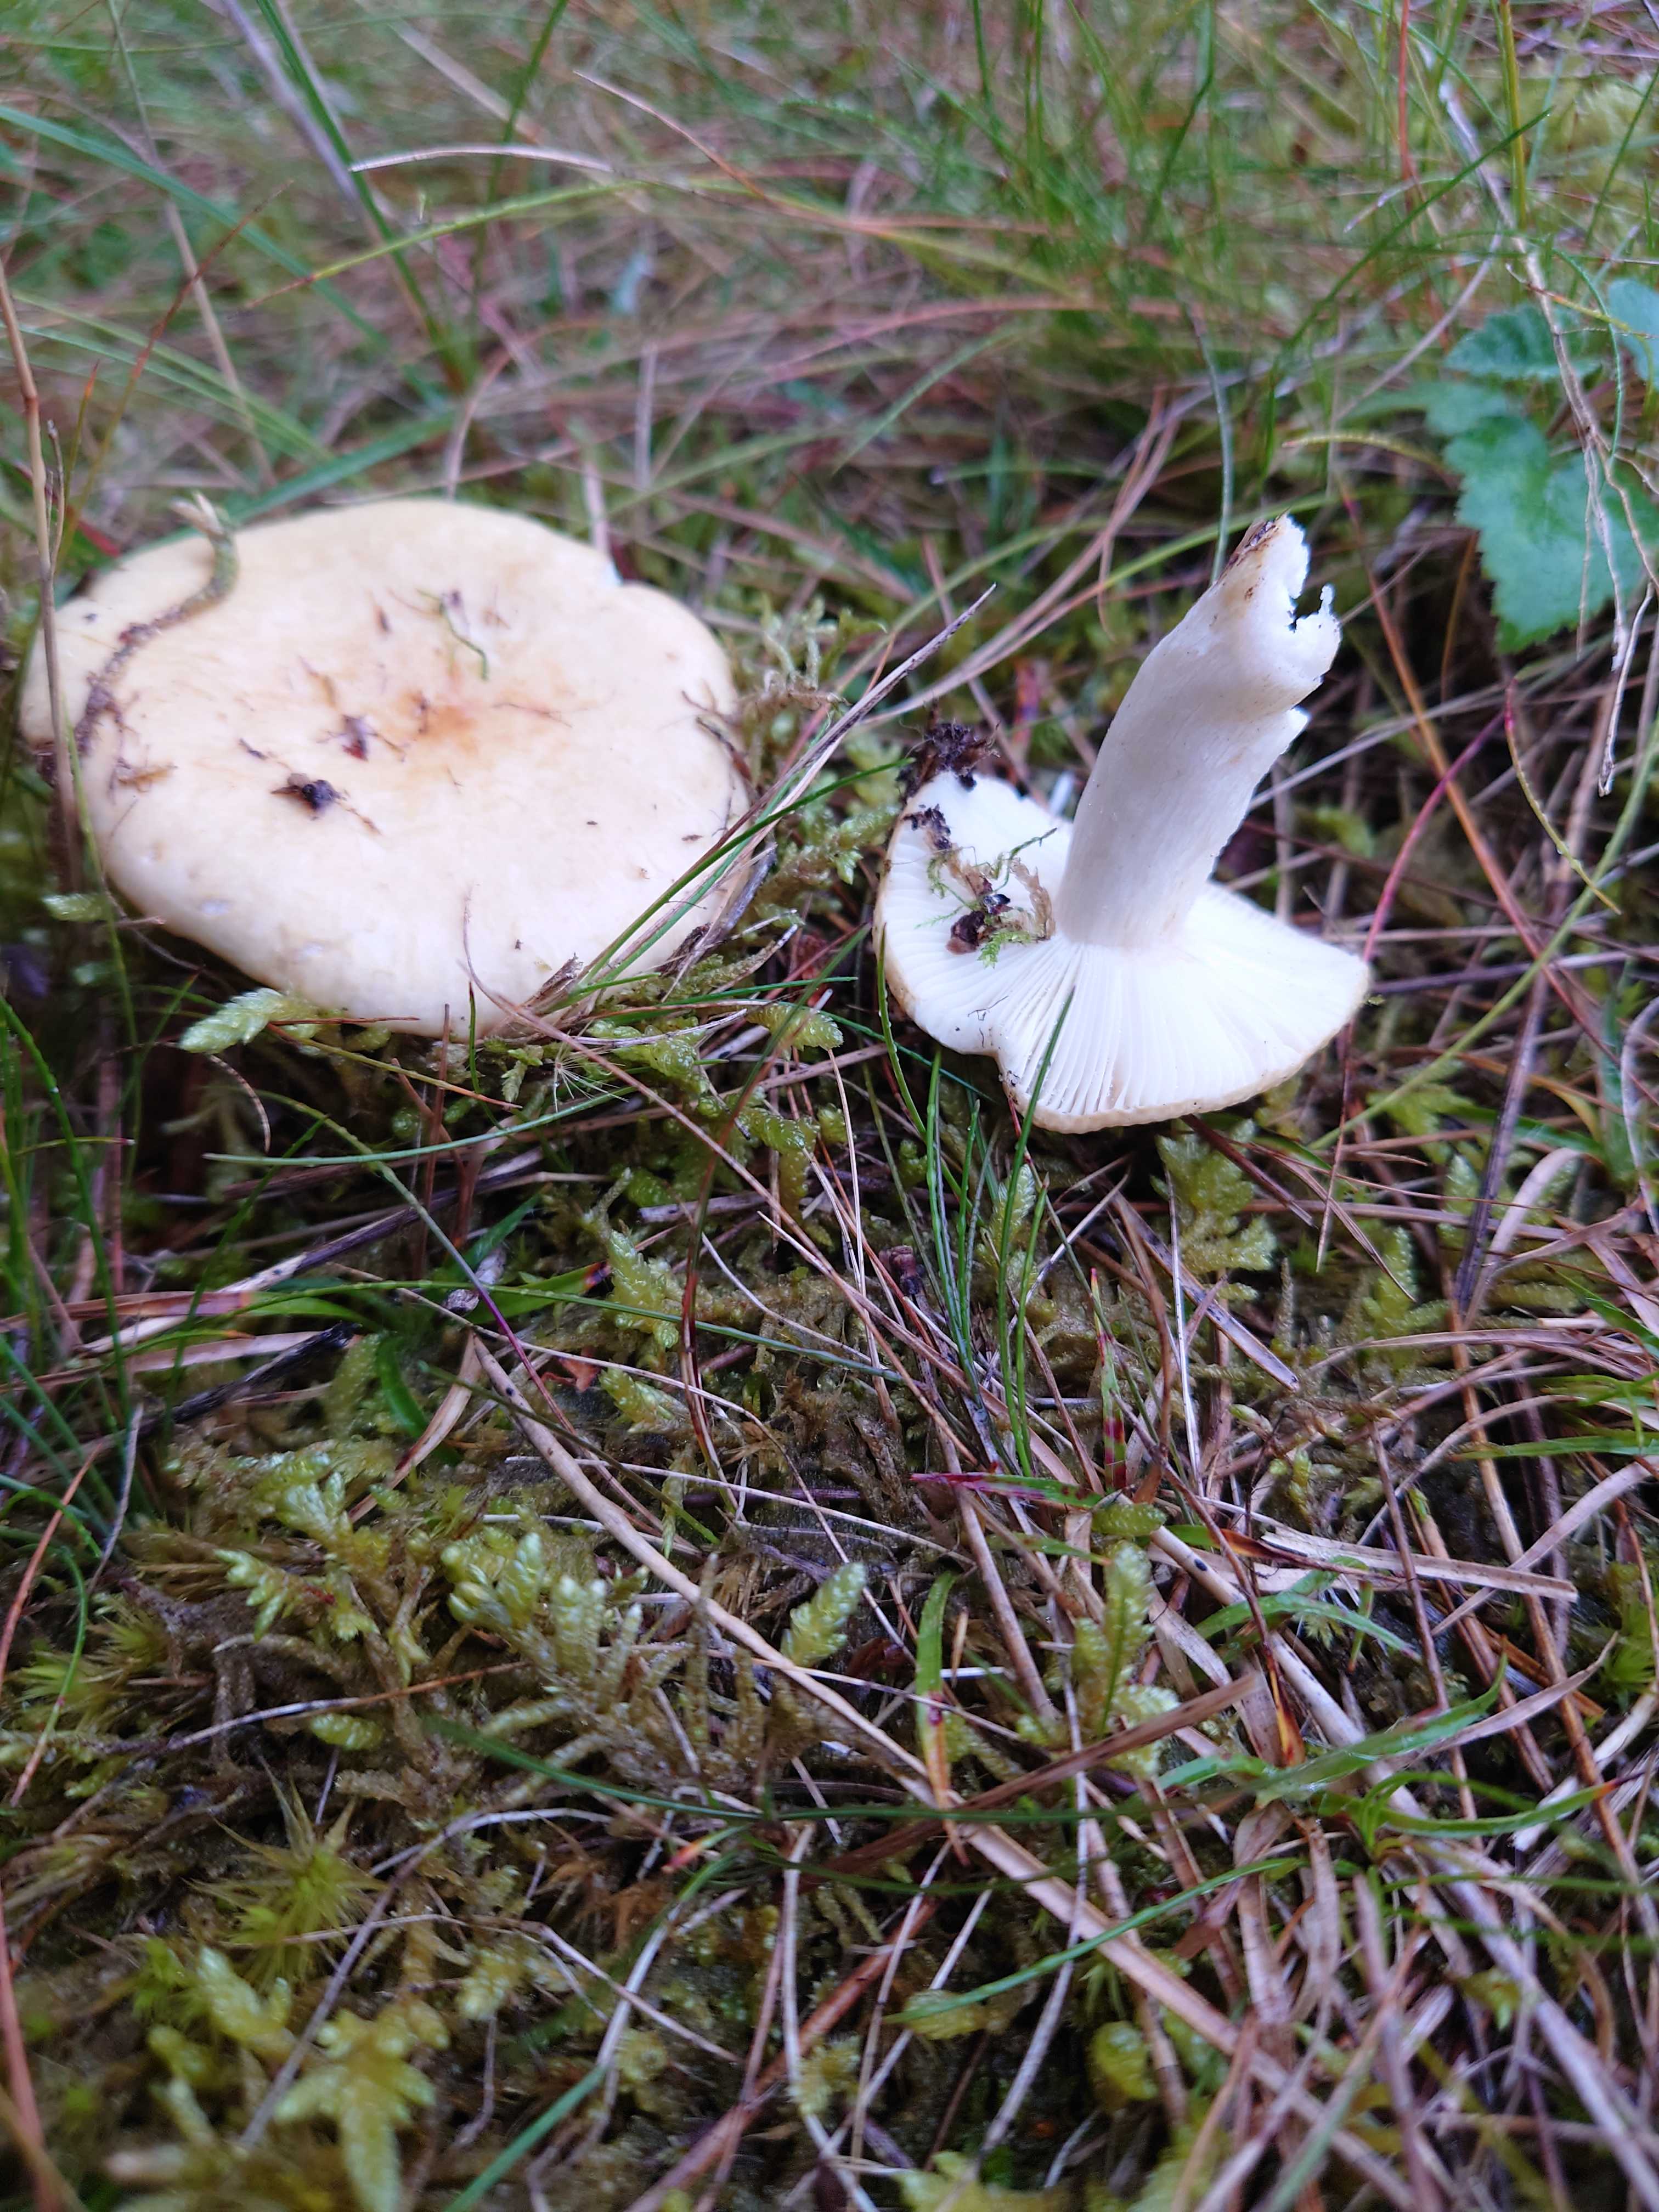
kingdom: Fungi
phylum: Basidiomycota
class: Agaricomycetes
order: Russulales
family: Russulaceae
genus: Russula
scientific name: Russula ochroleuca
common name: okkergul skørhat
